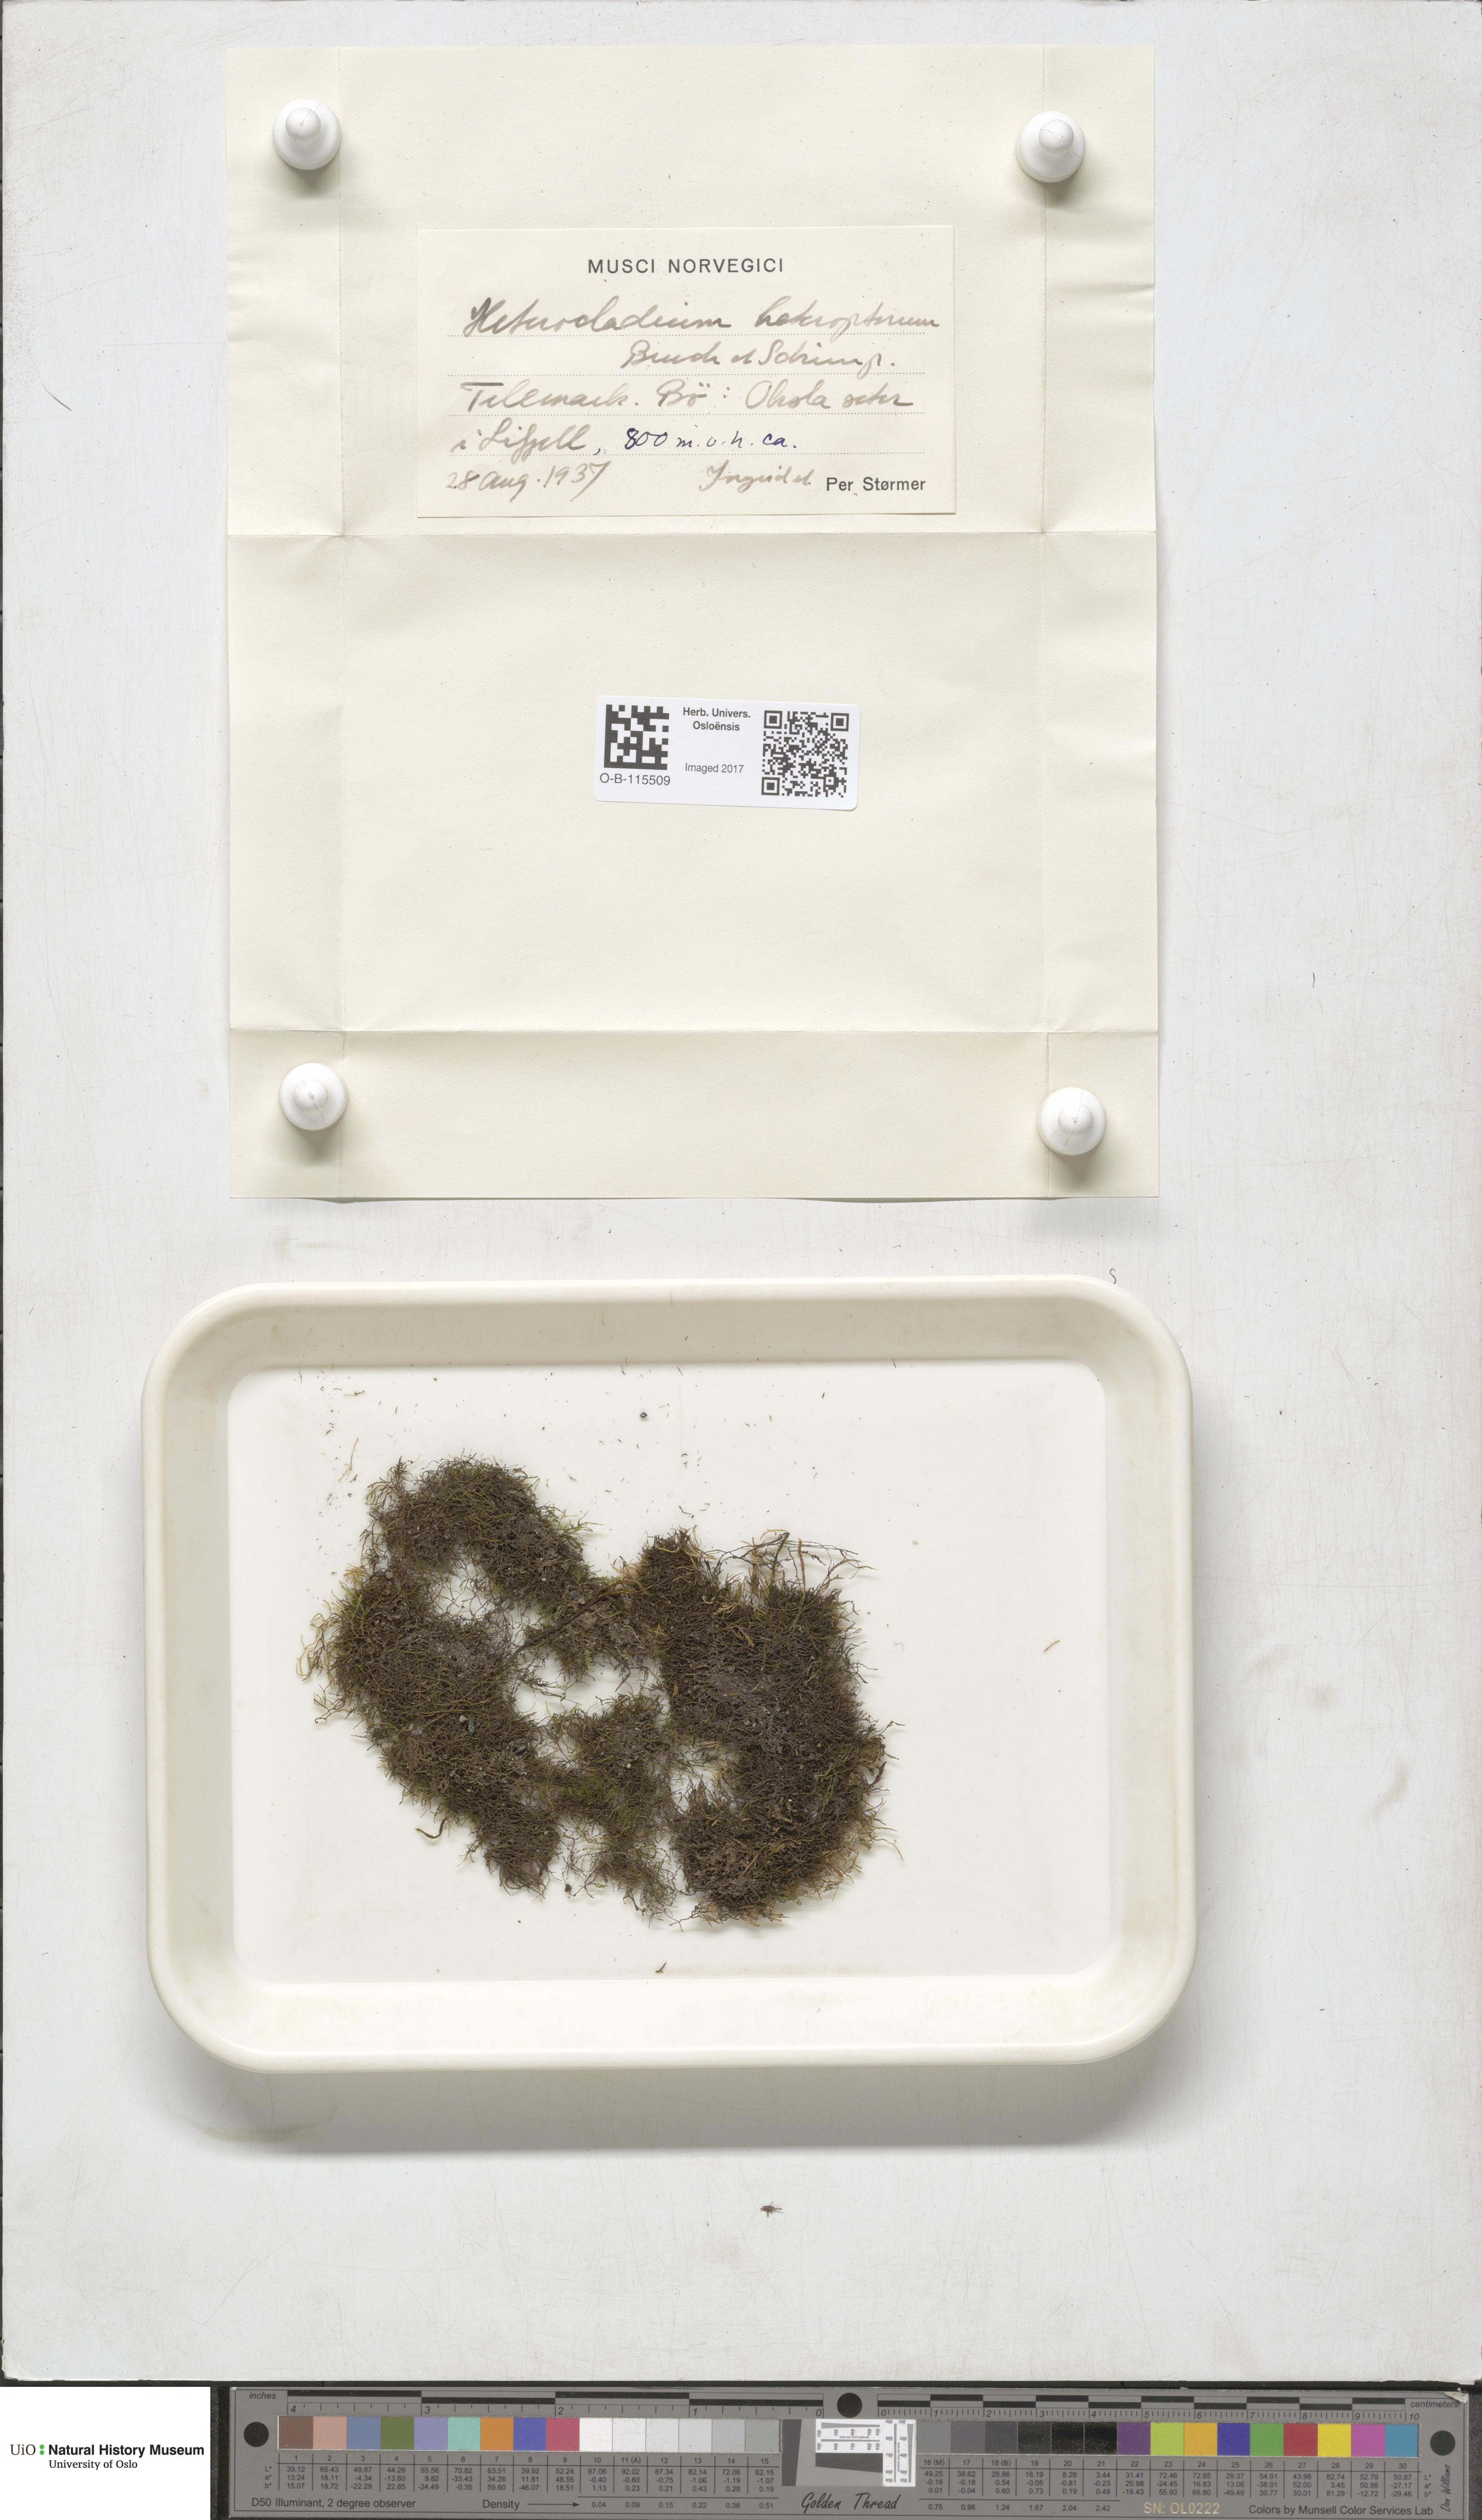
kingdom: Plantae
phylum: Bryophyta
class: Bryopsida
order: Hypnales
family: Lembophyllaceae
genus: Heterocladium
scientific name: Heterocladium heteropterum
